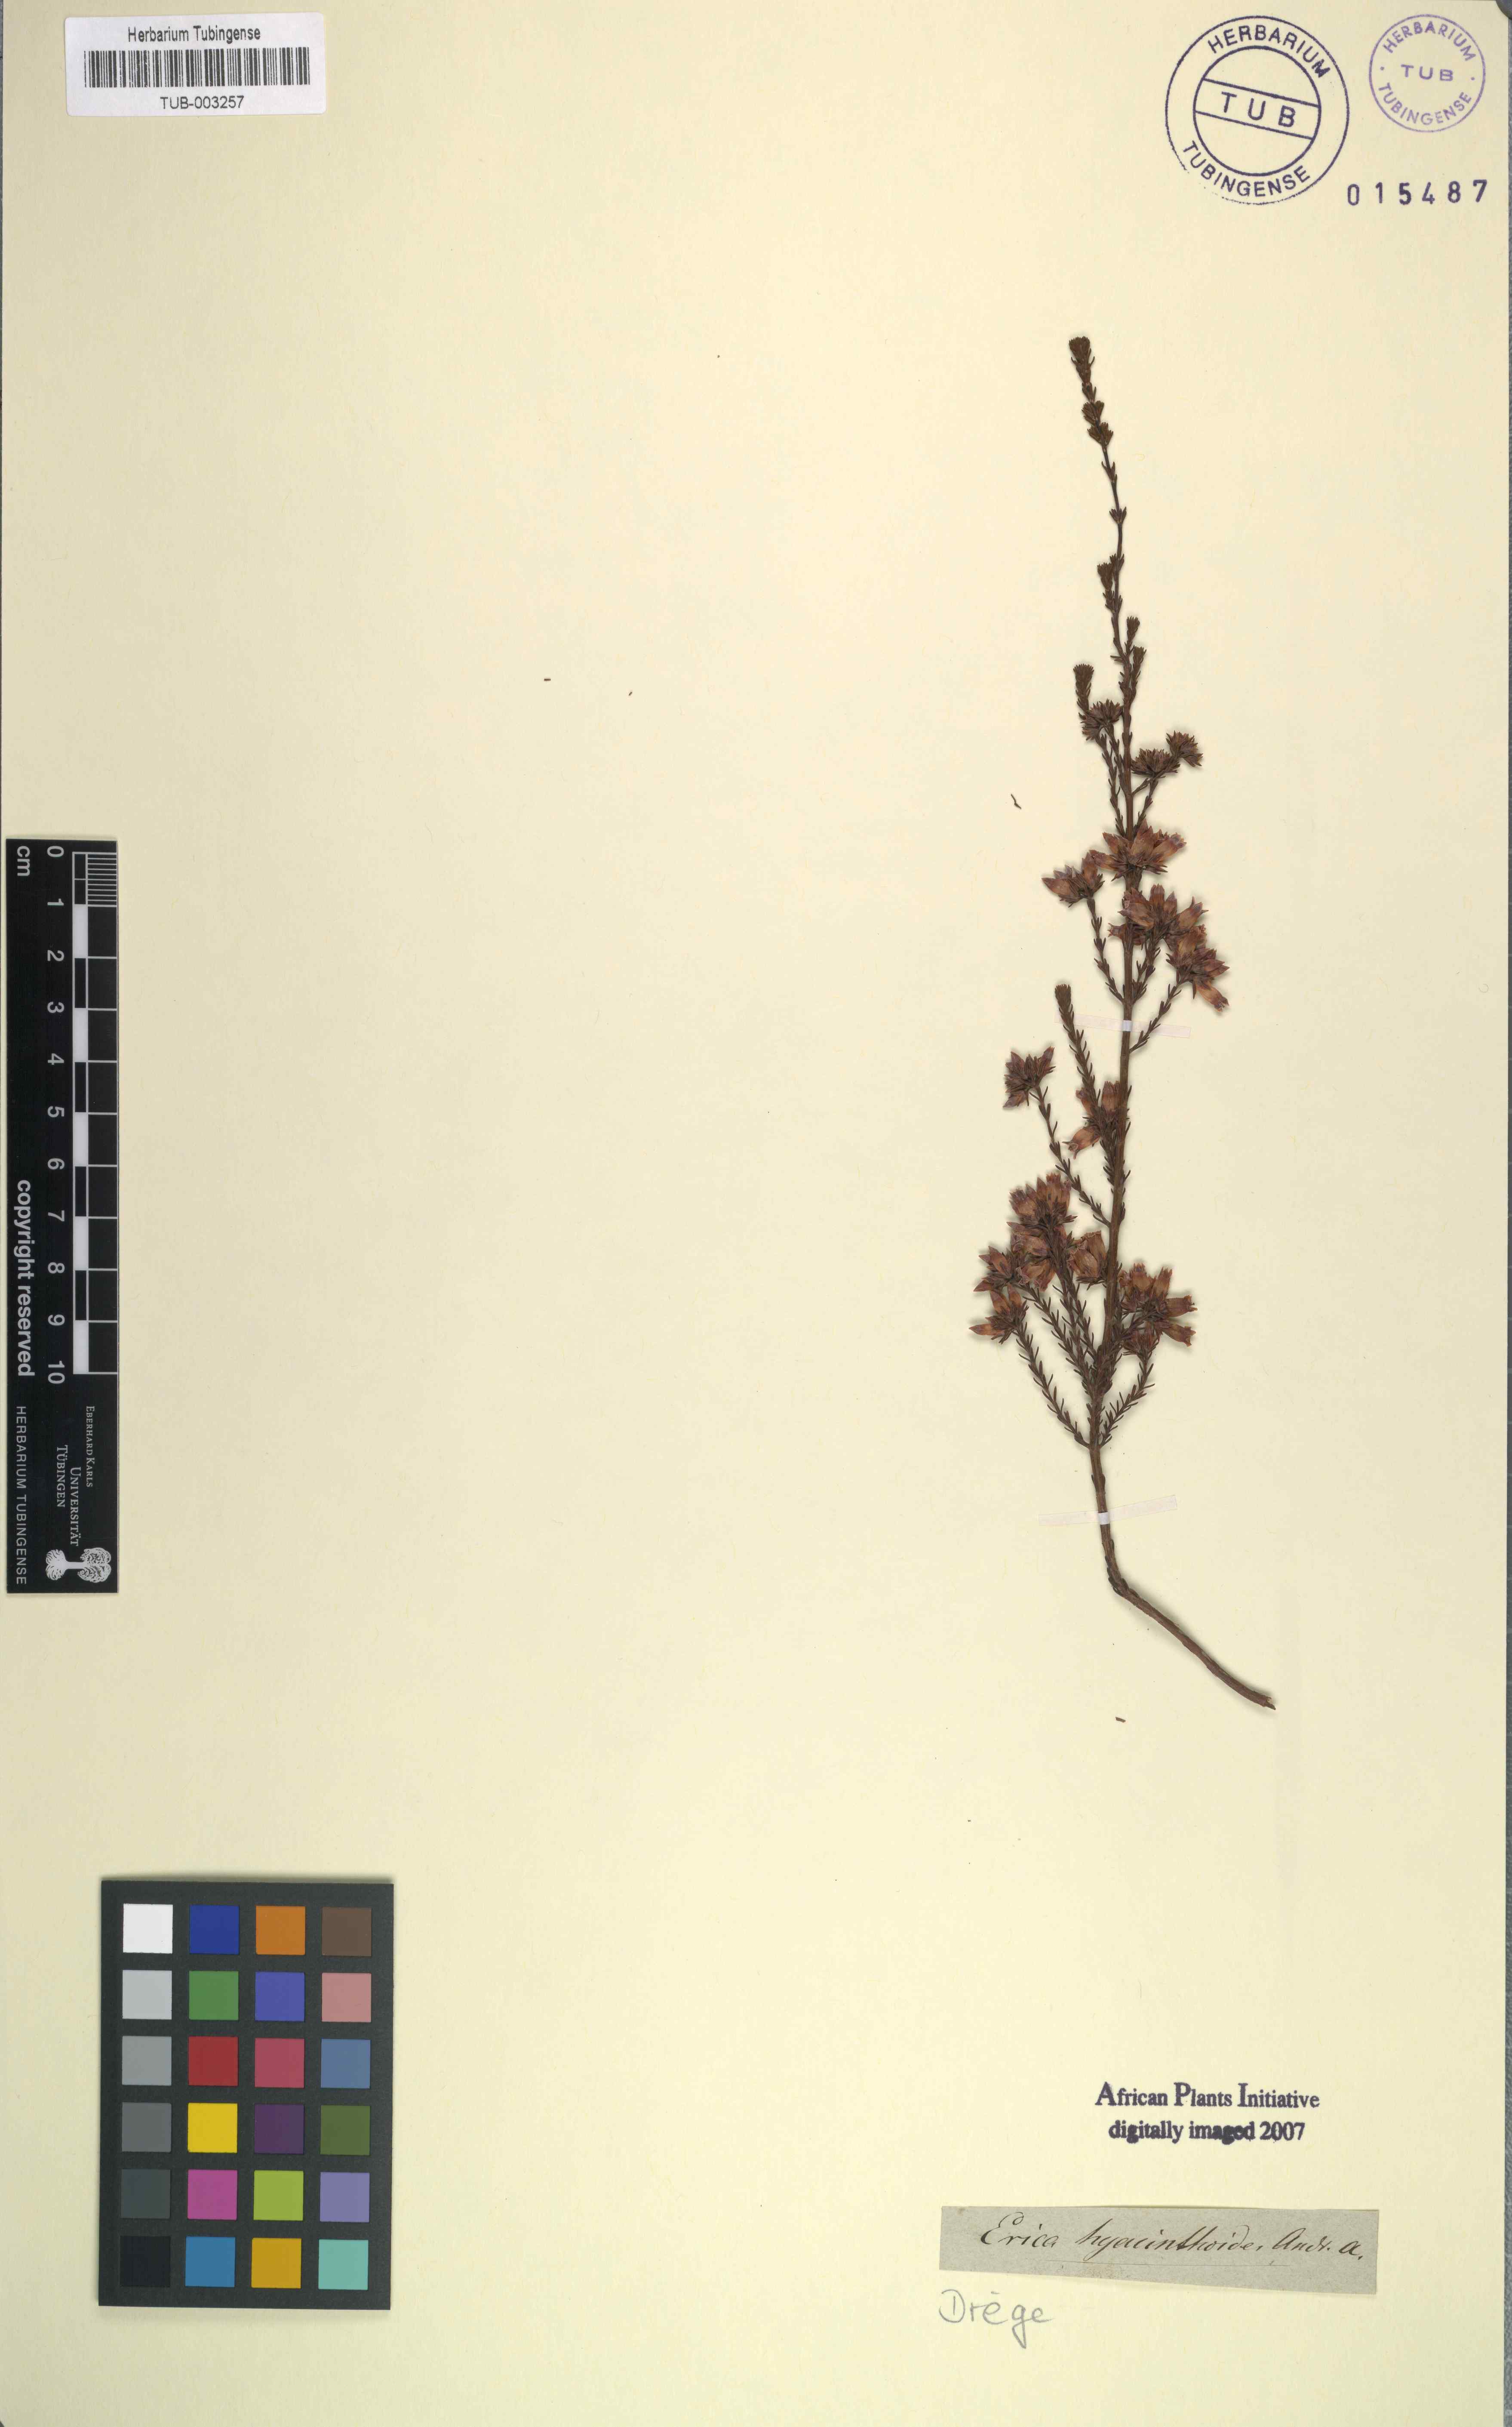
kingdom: Plantae
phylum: Tracheophyta
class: Magnoliopsida
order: Ericales
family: Ericaceae
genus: Erica
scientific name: Erica walkeria
